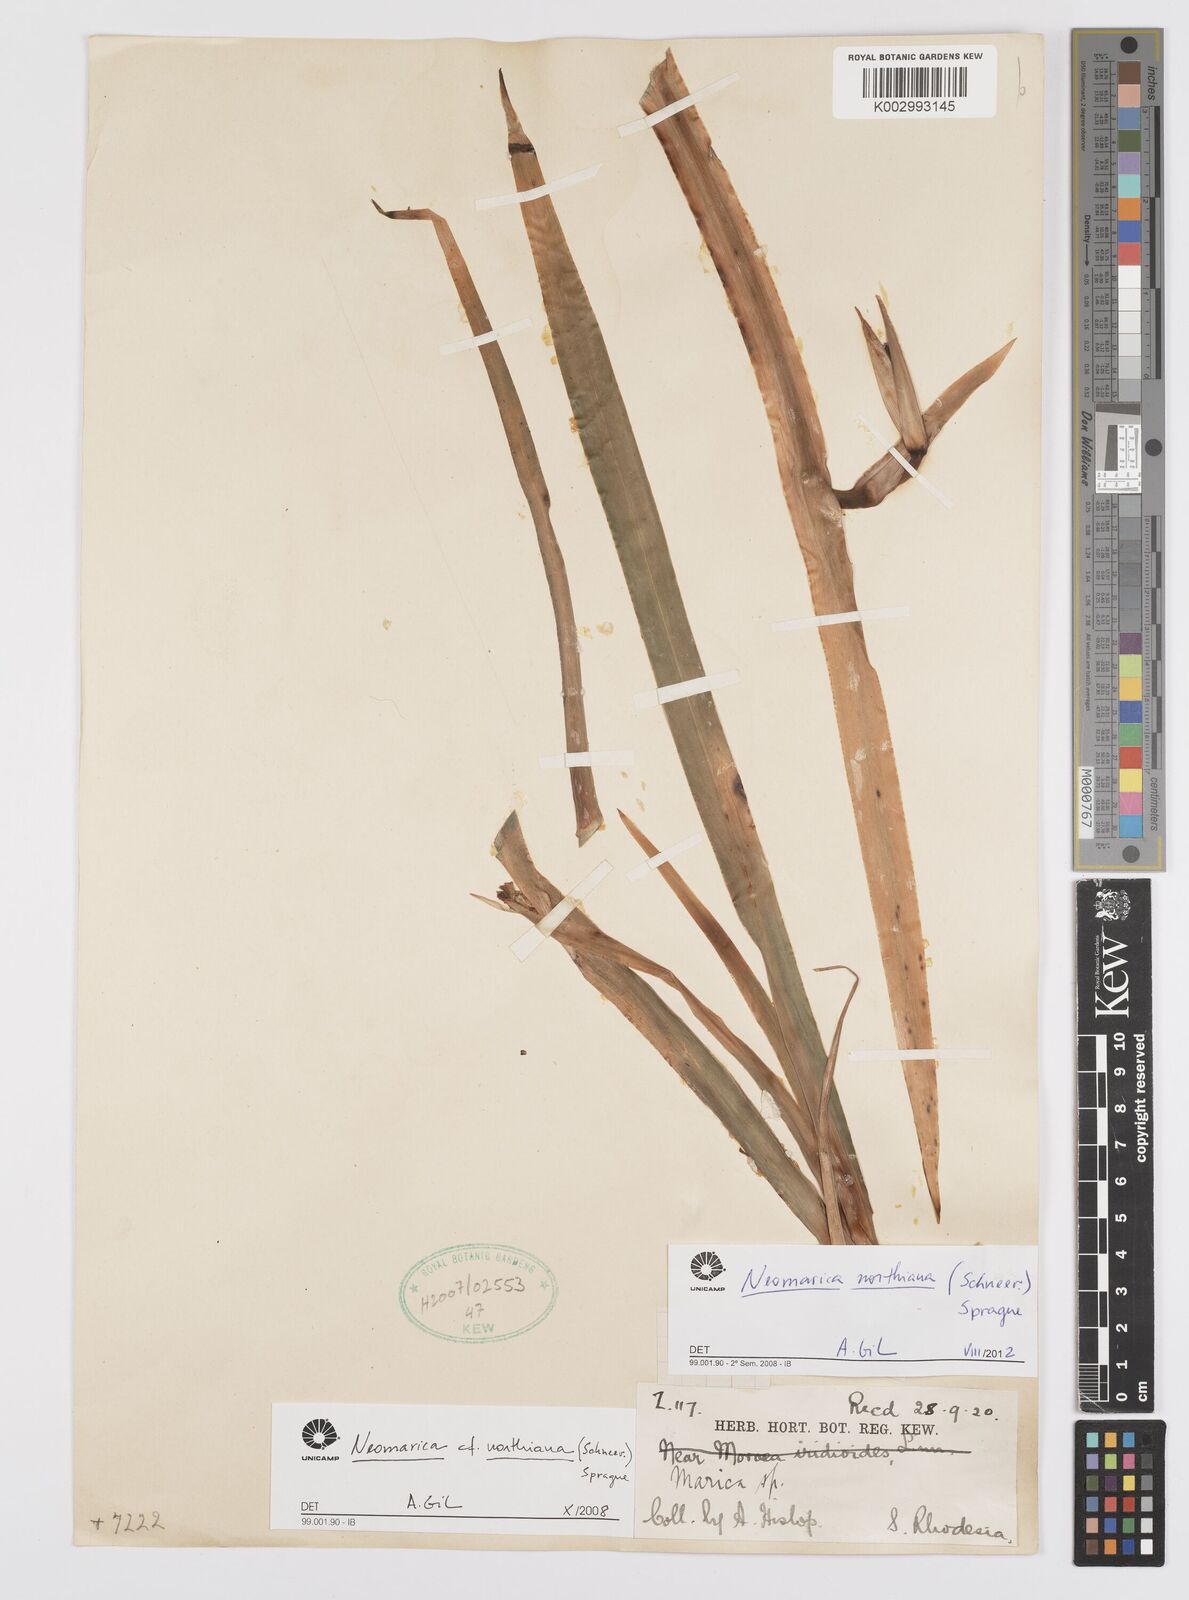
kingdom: Plantae
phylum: Tracheophyta
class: Liliopsida
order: Asparagales
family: Iridaceae
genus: Trimezia
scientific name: Trimezia northiana
